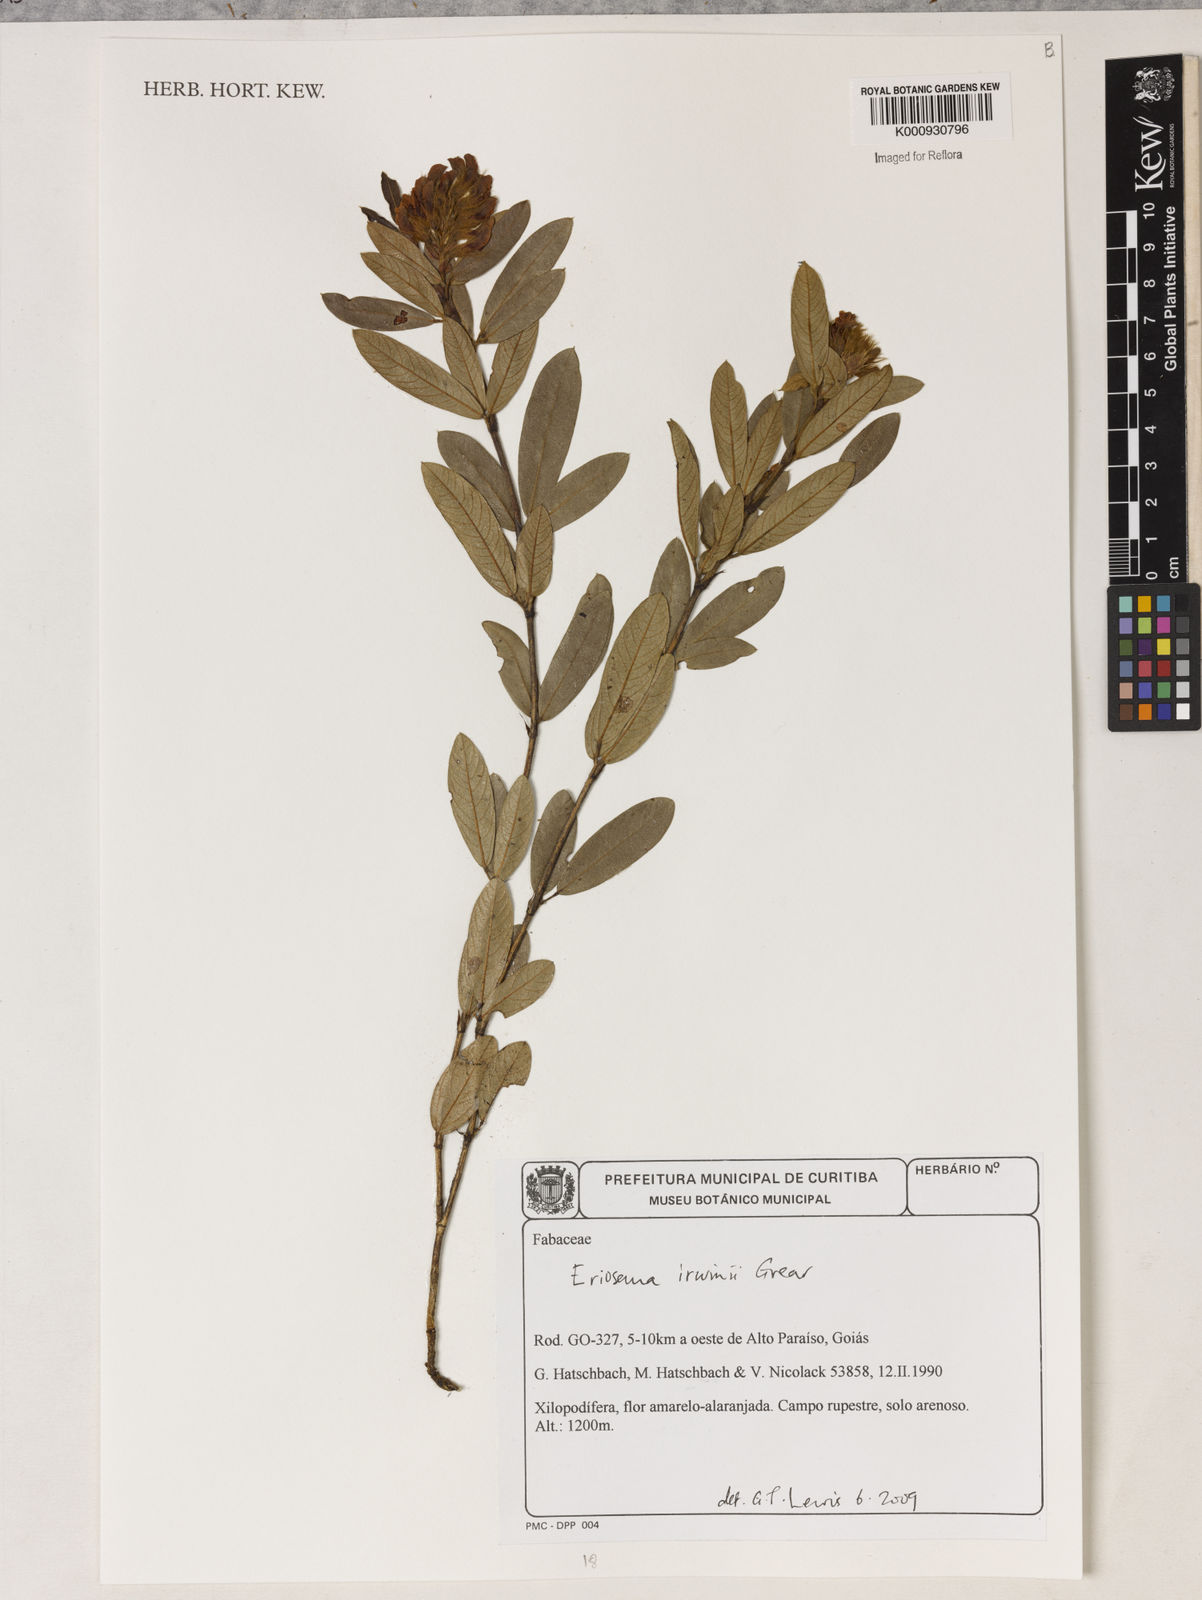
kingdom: Plantae
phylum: Tracheophyta
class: Magnoliopsida
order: Fabales
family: Fabaceae
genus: Eriosema
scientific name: Eriosema irwinii
